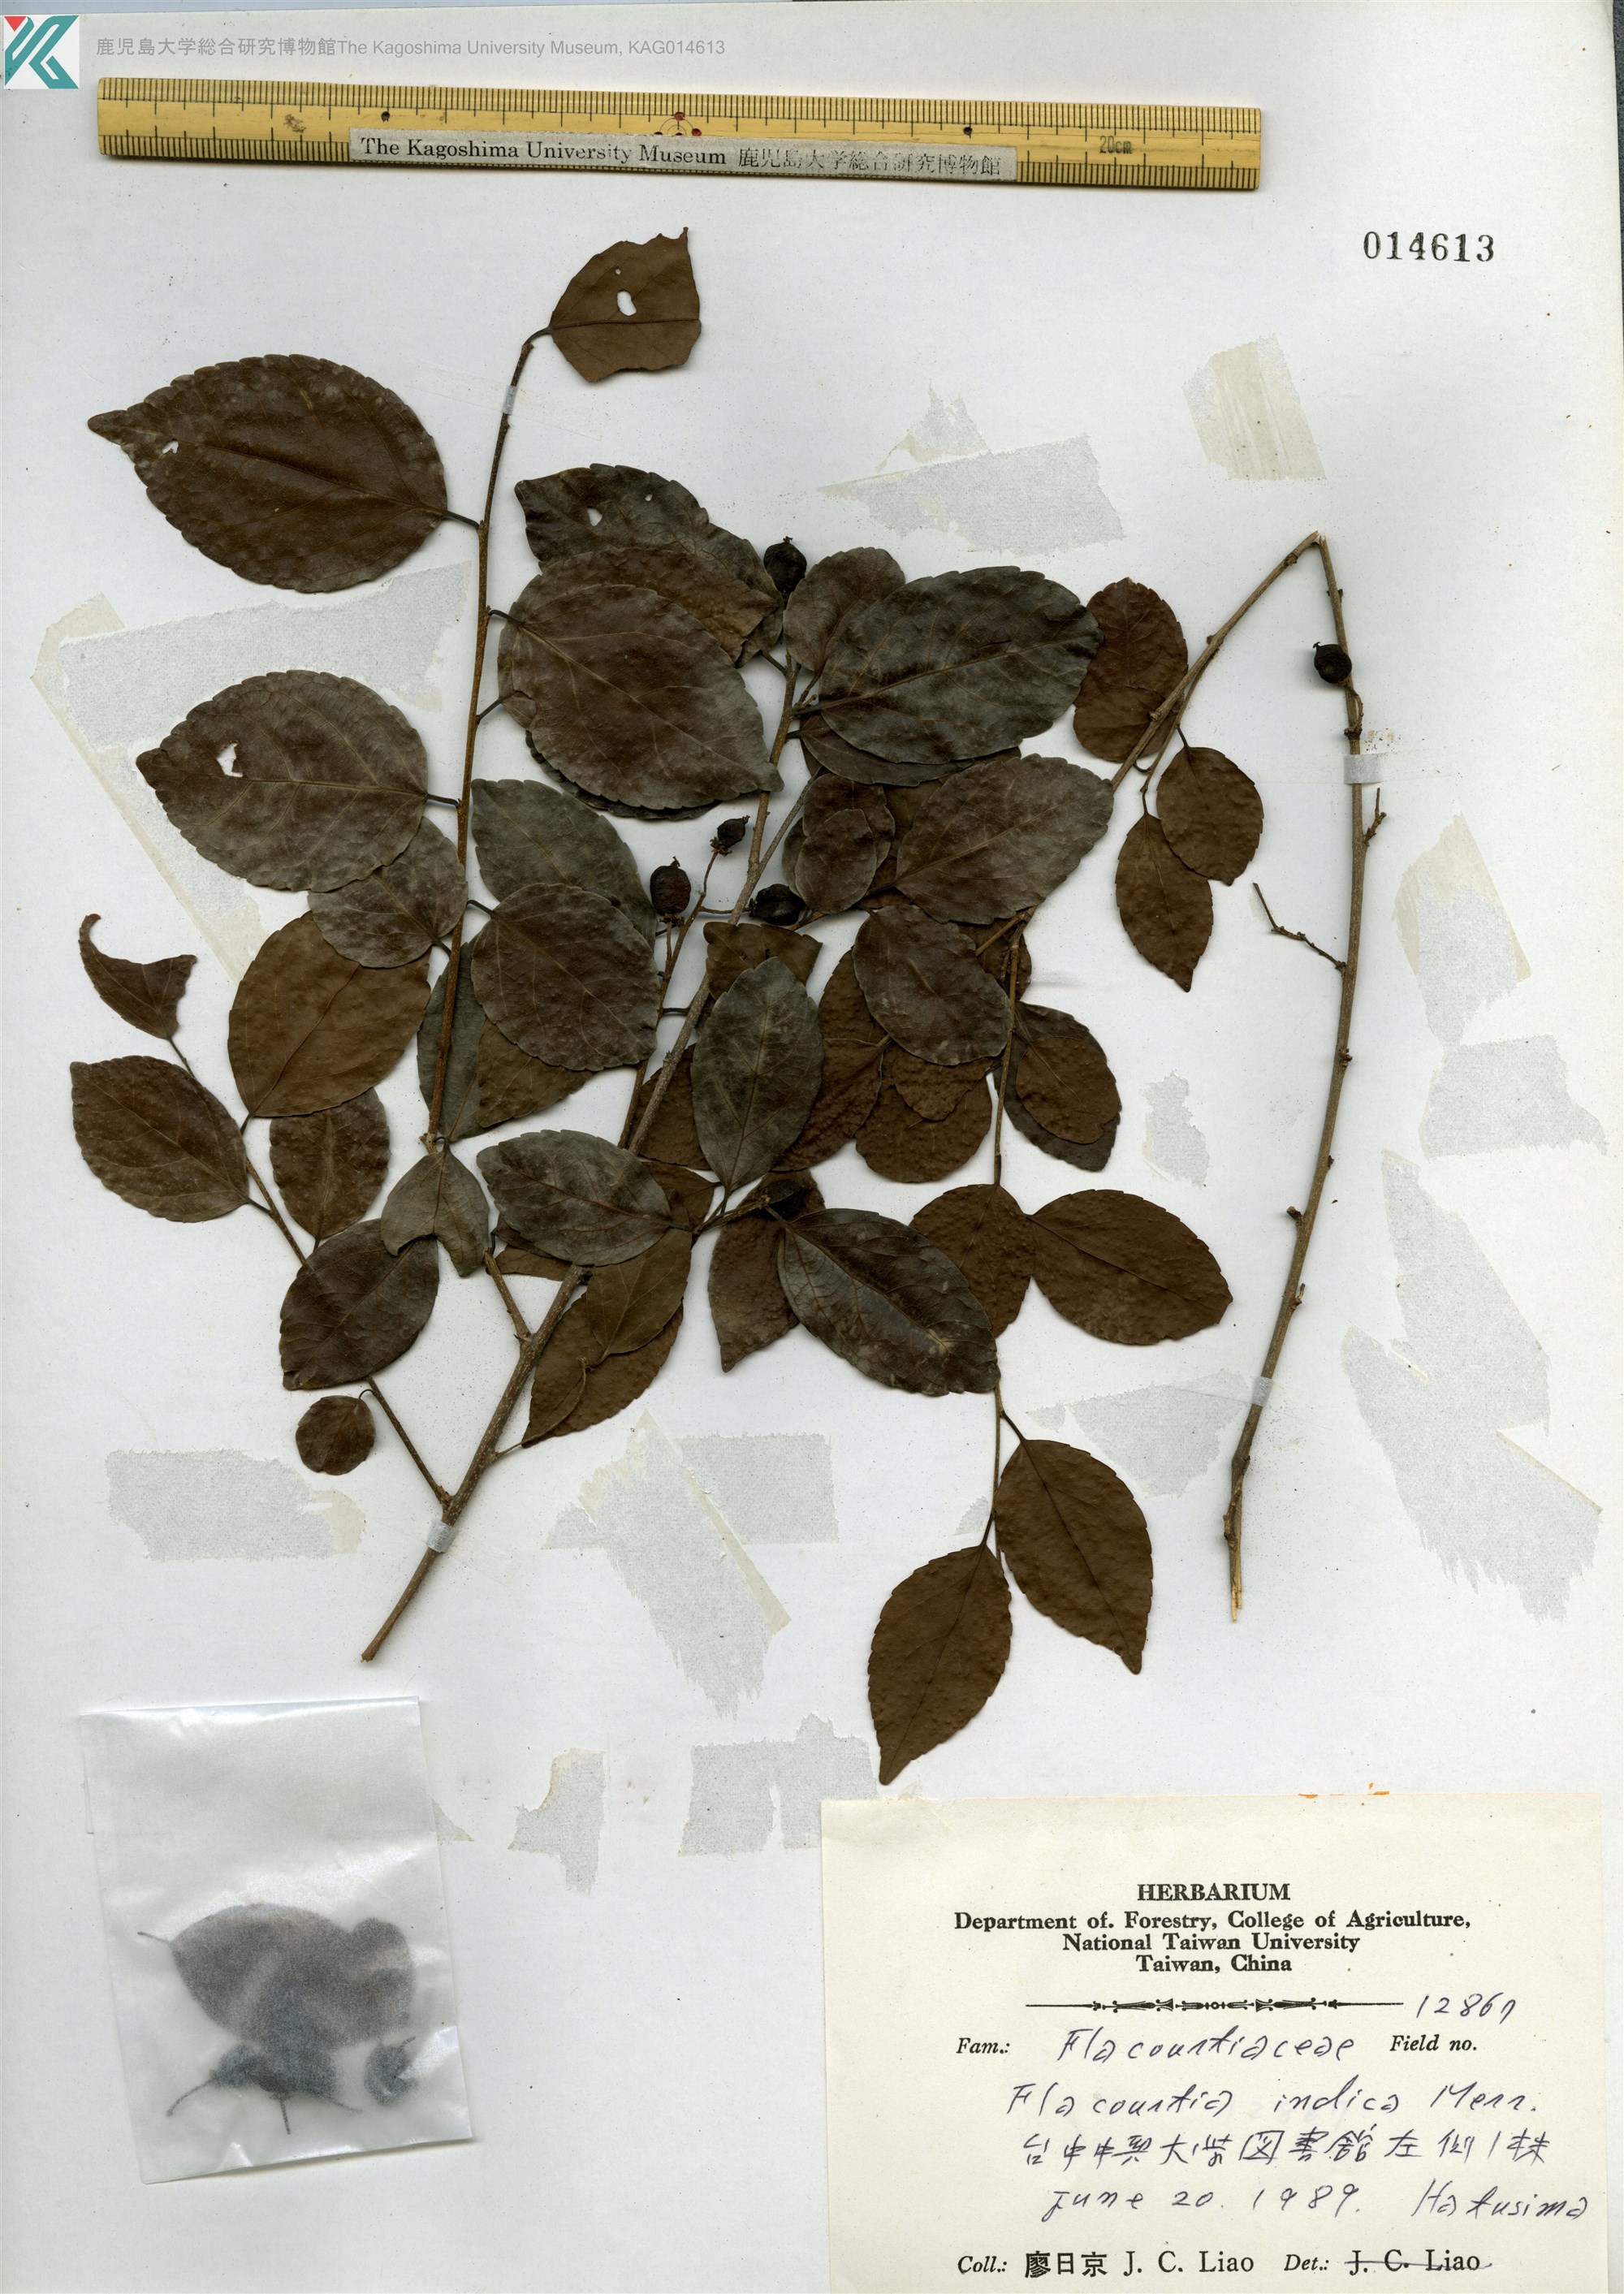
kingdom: Plantae
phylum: Tracheophyta
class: Magnoliopsida
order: Malpighiales
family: Salicaceae
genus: Flacourtia
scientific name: Flacourtia rukam
